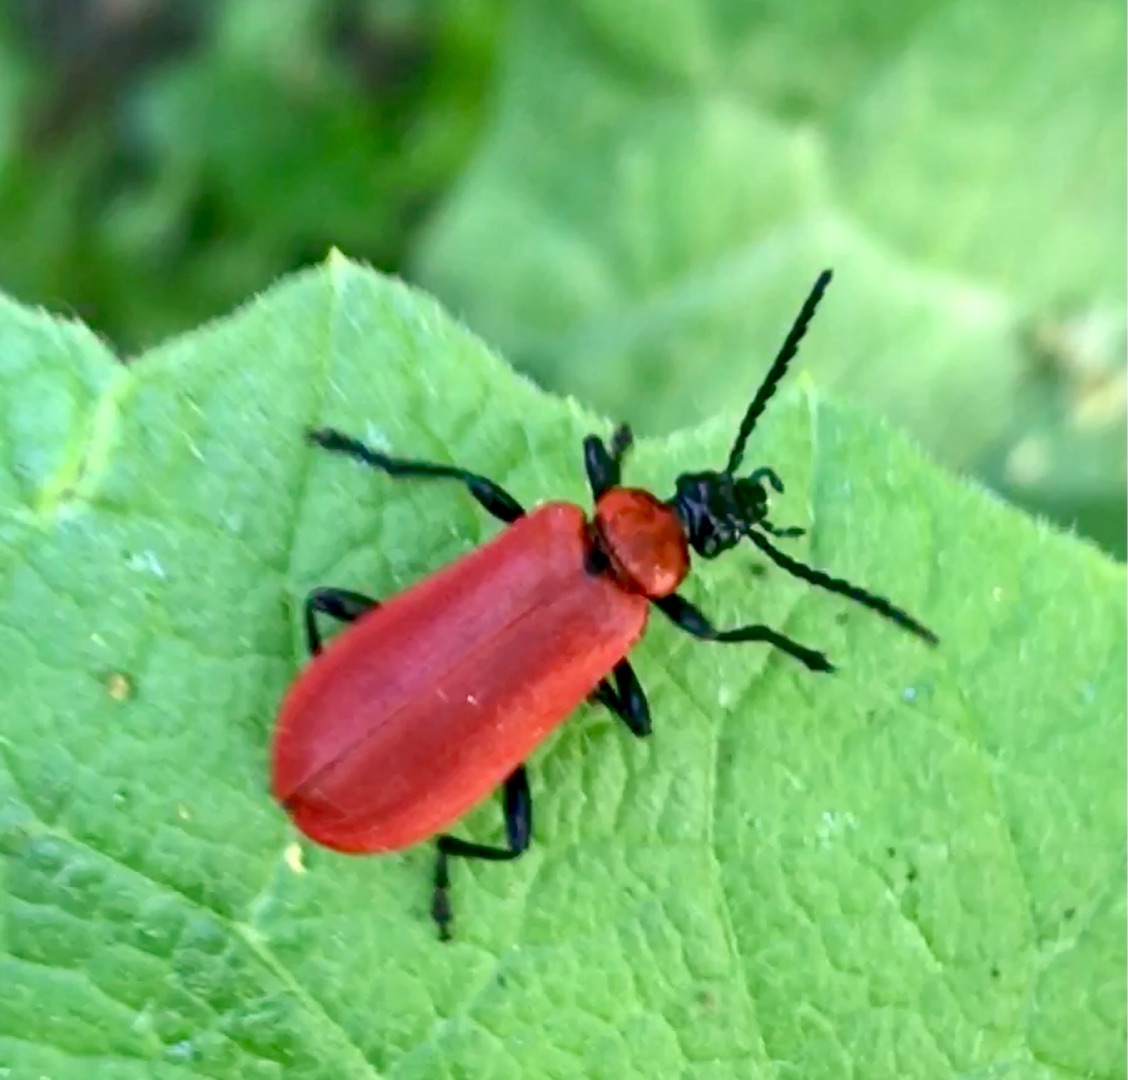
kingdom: Animalia
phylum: Arthropoda
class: Insecta
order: Coleoptera
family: Pyrochroidae
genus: Pyrochroa
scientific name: Pyrochroa coccinea
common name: Sorthovedet kardinalbille
